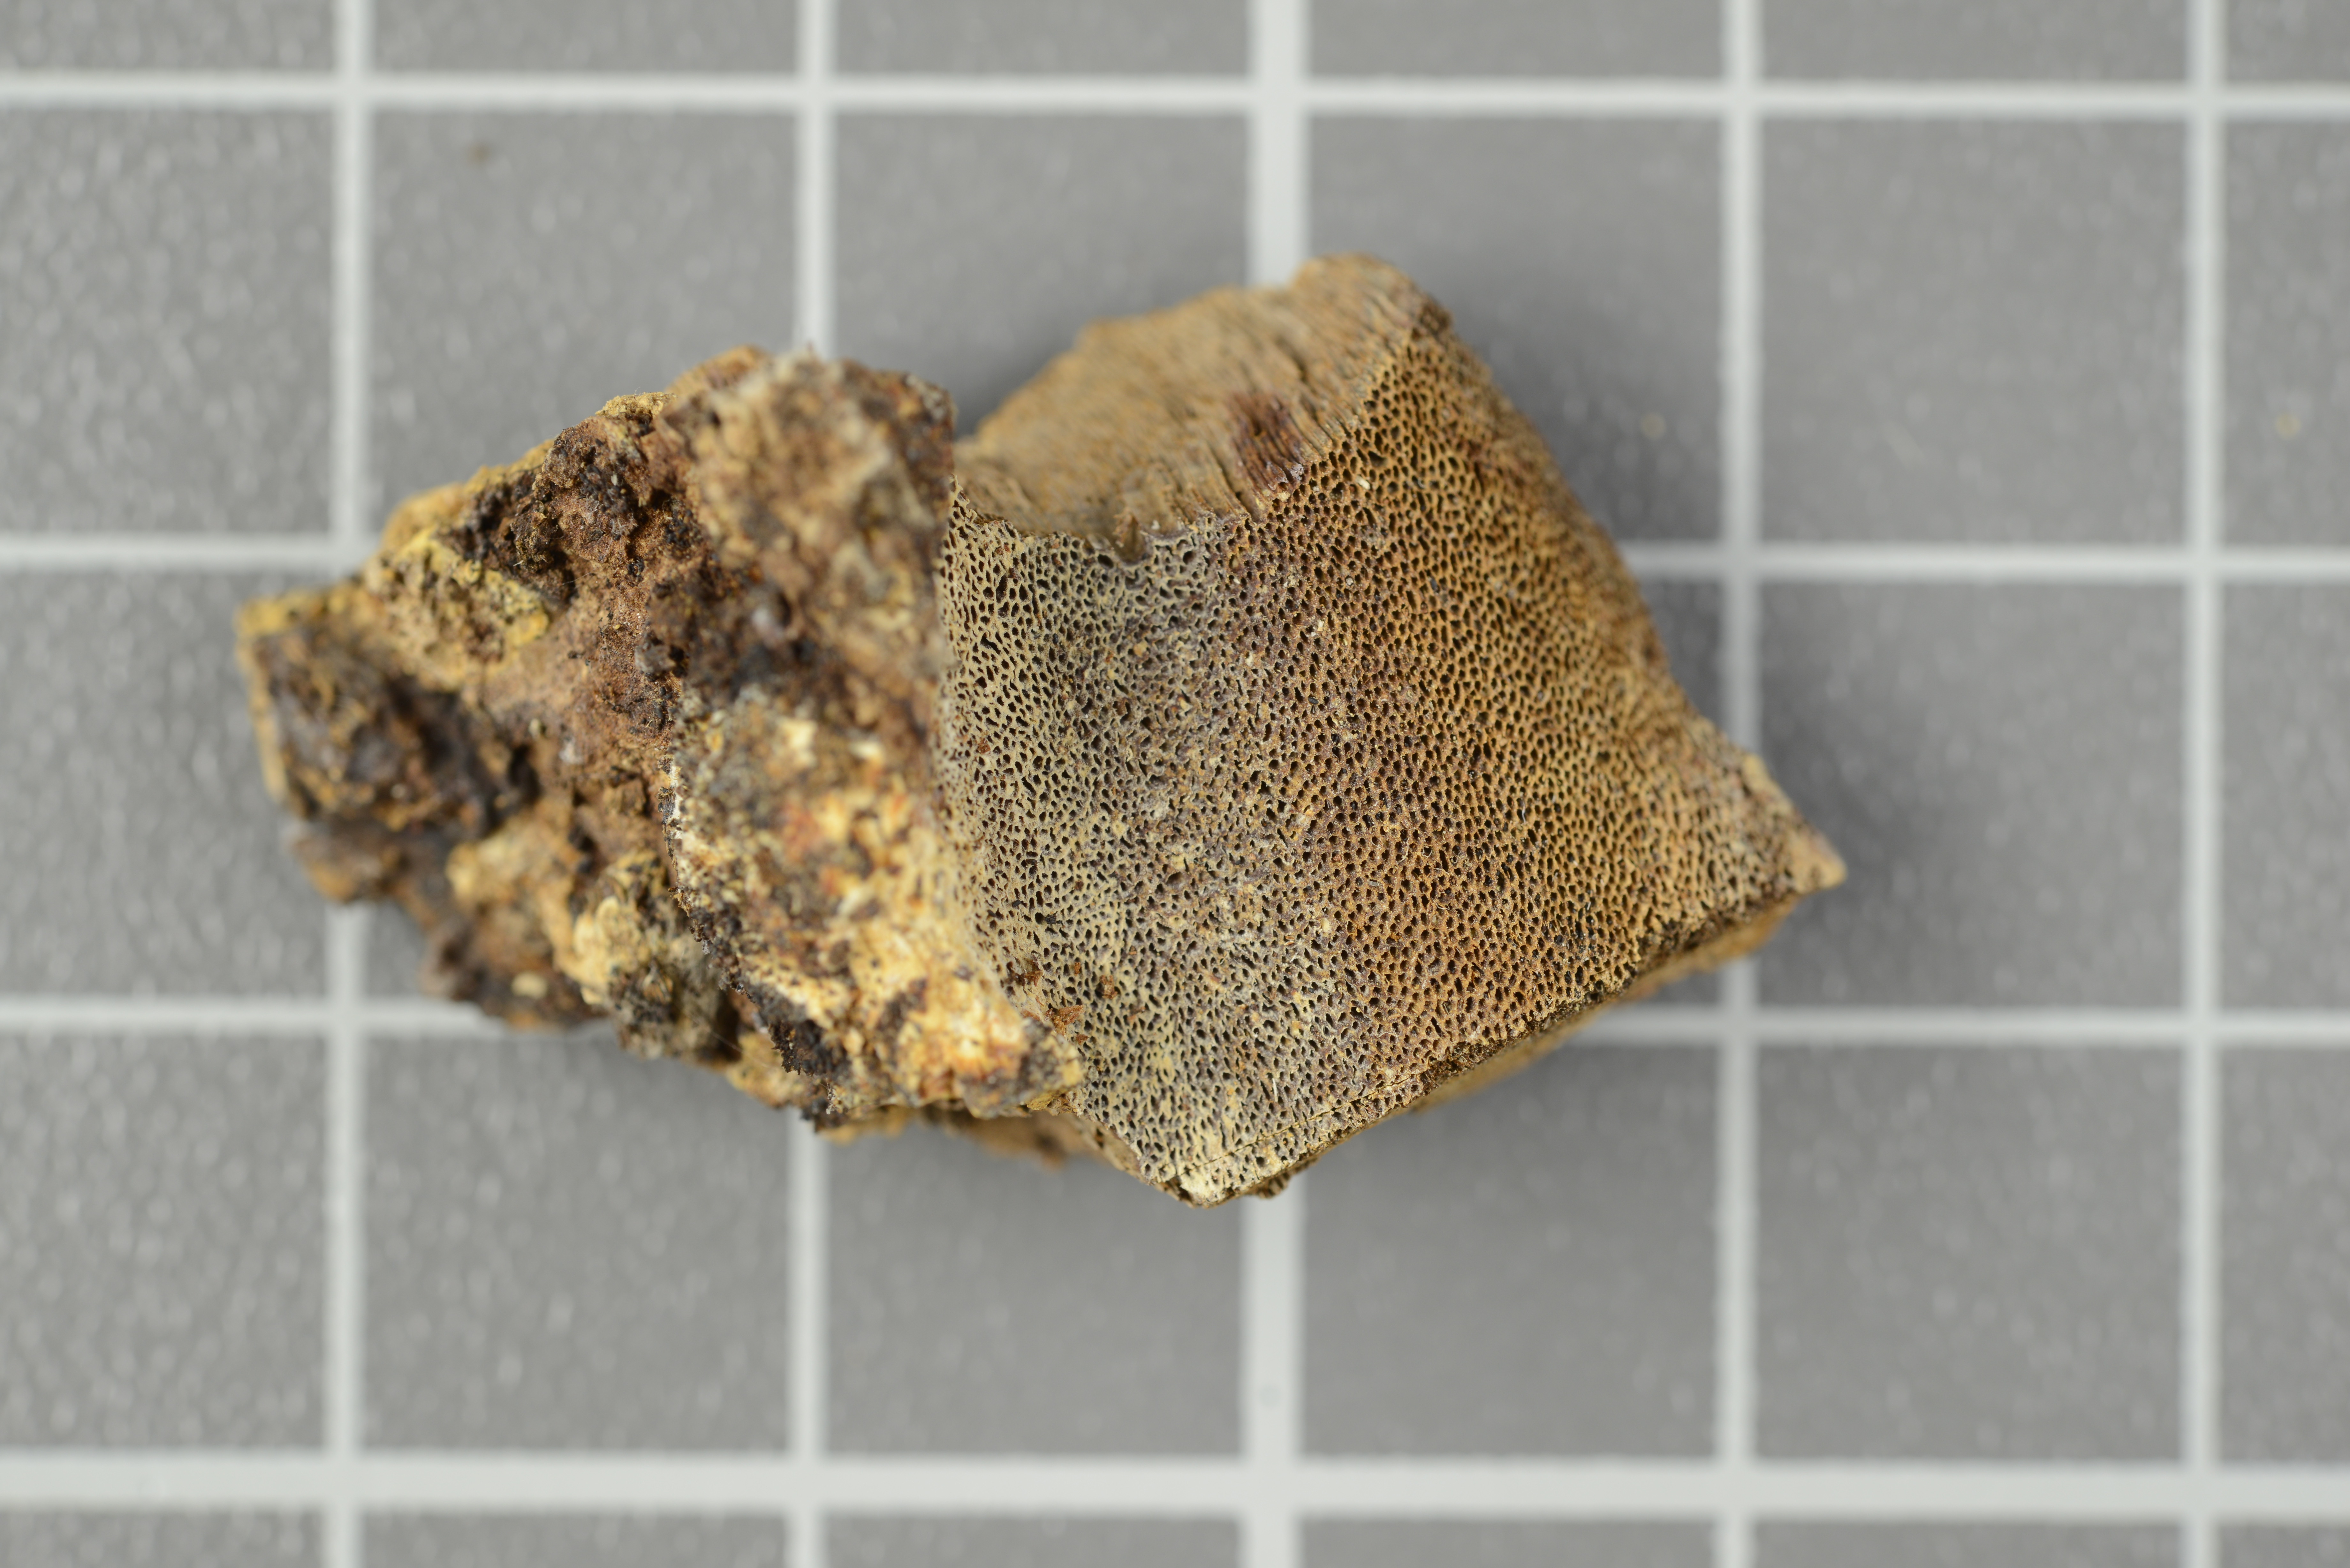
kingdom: Fungi
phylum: Basidiomycota
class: Agaricomycetes
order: Hymenochaetales
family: Hymenochaetaceae
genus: Inonotus
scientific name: Inonotus boninensis
